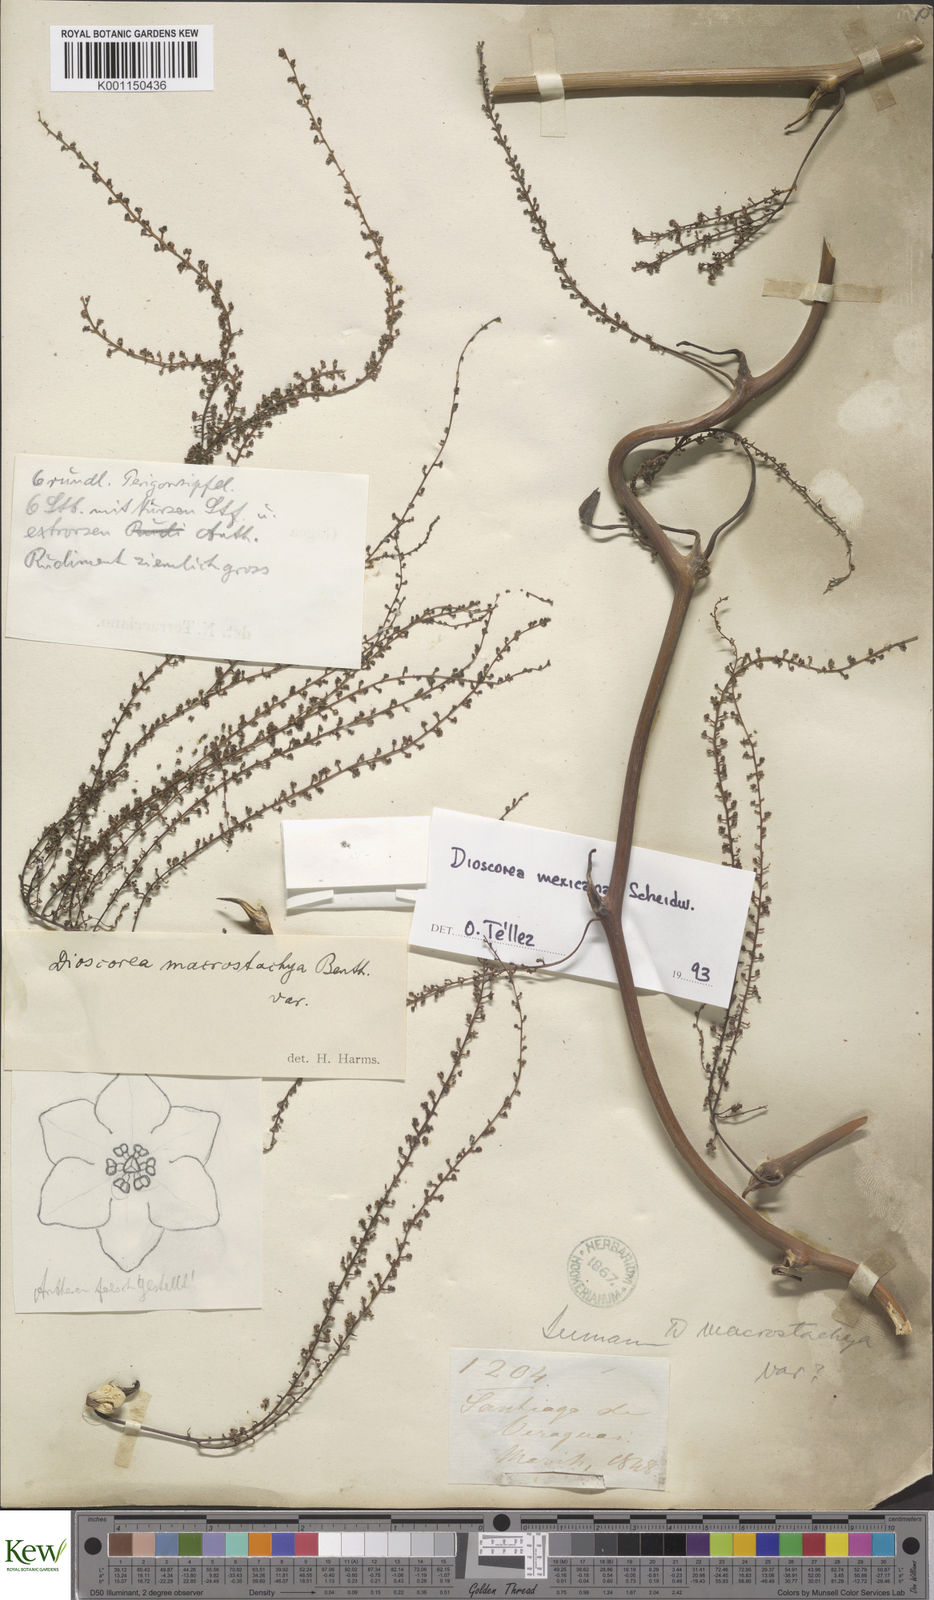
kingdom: Plantae
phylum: Tracheophyta
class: Liliopsida
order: Dioscoreales
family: Dioscoreaceae
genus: Dioscorea
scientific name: Dioscorea mexicana
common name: Mexican yam
